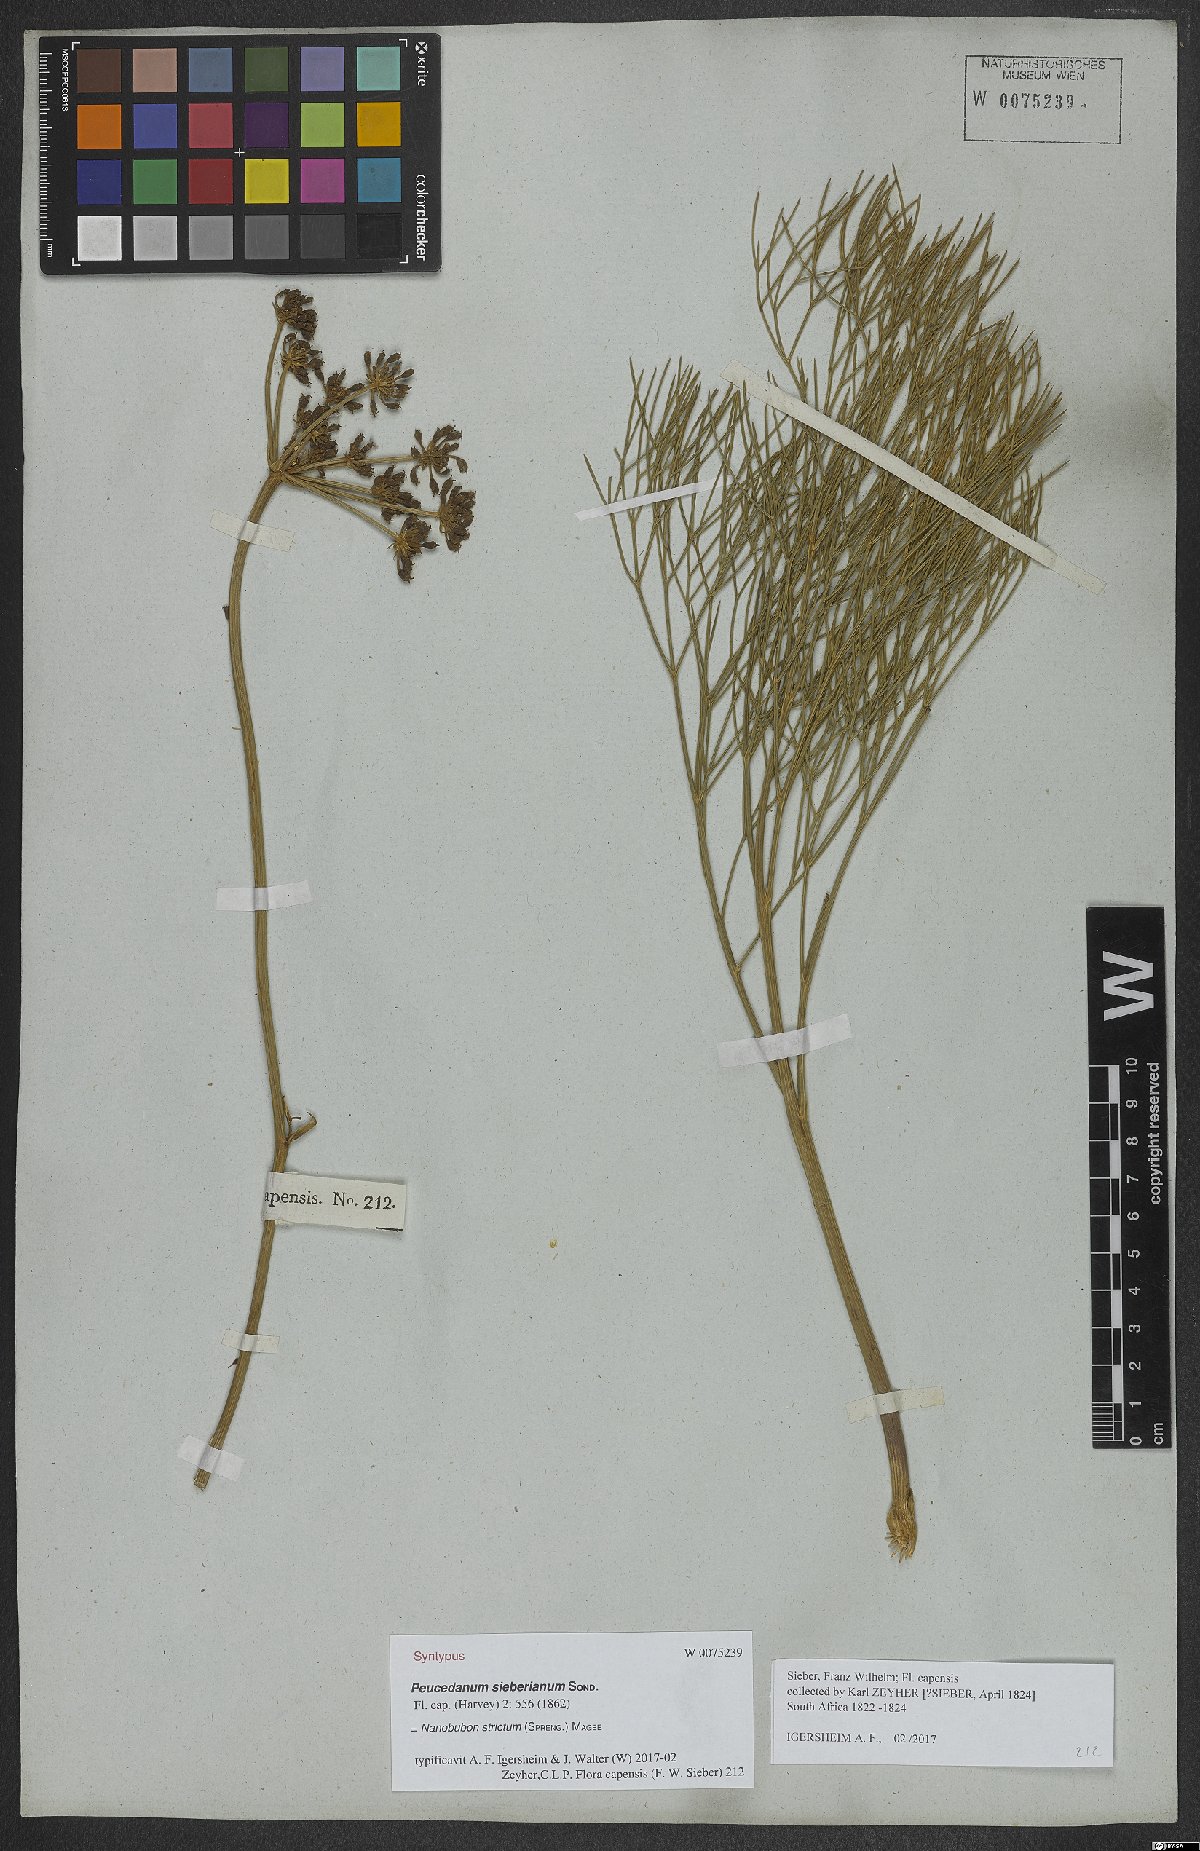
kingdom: Plantae
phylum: Tracheophyta
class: Magnoliopsida
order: Apiales
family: Apiaceae
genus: Nanobubon
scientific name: Nanobubon strictum
